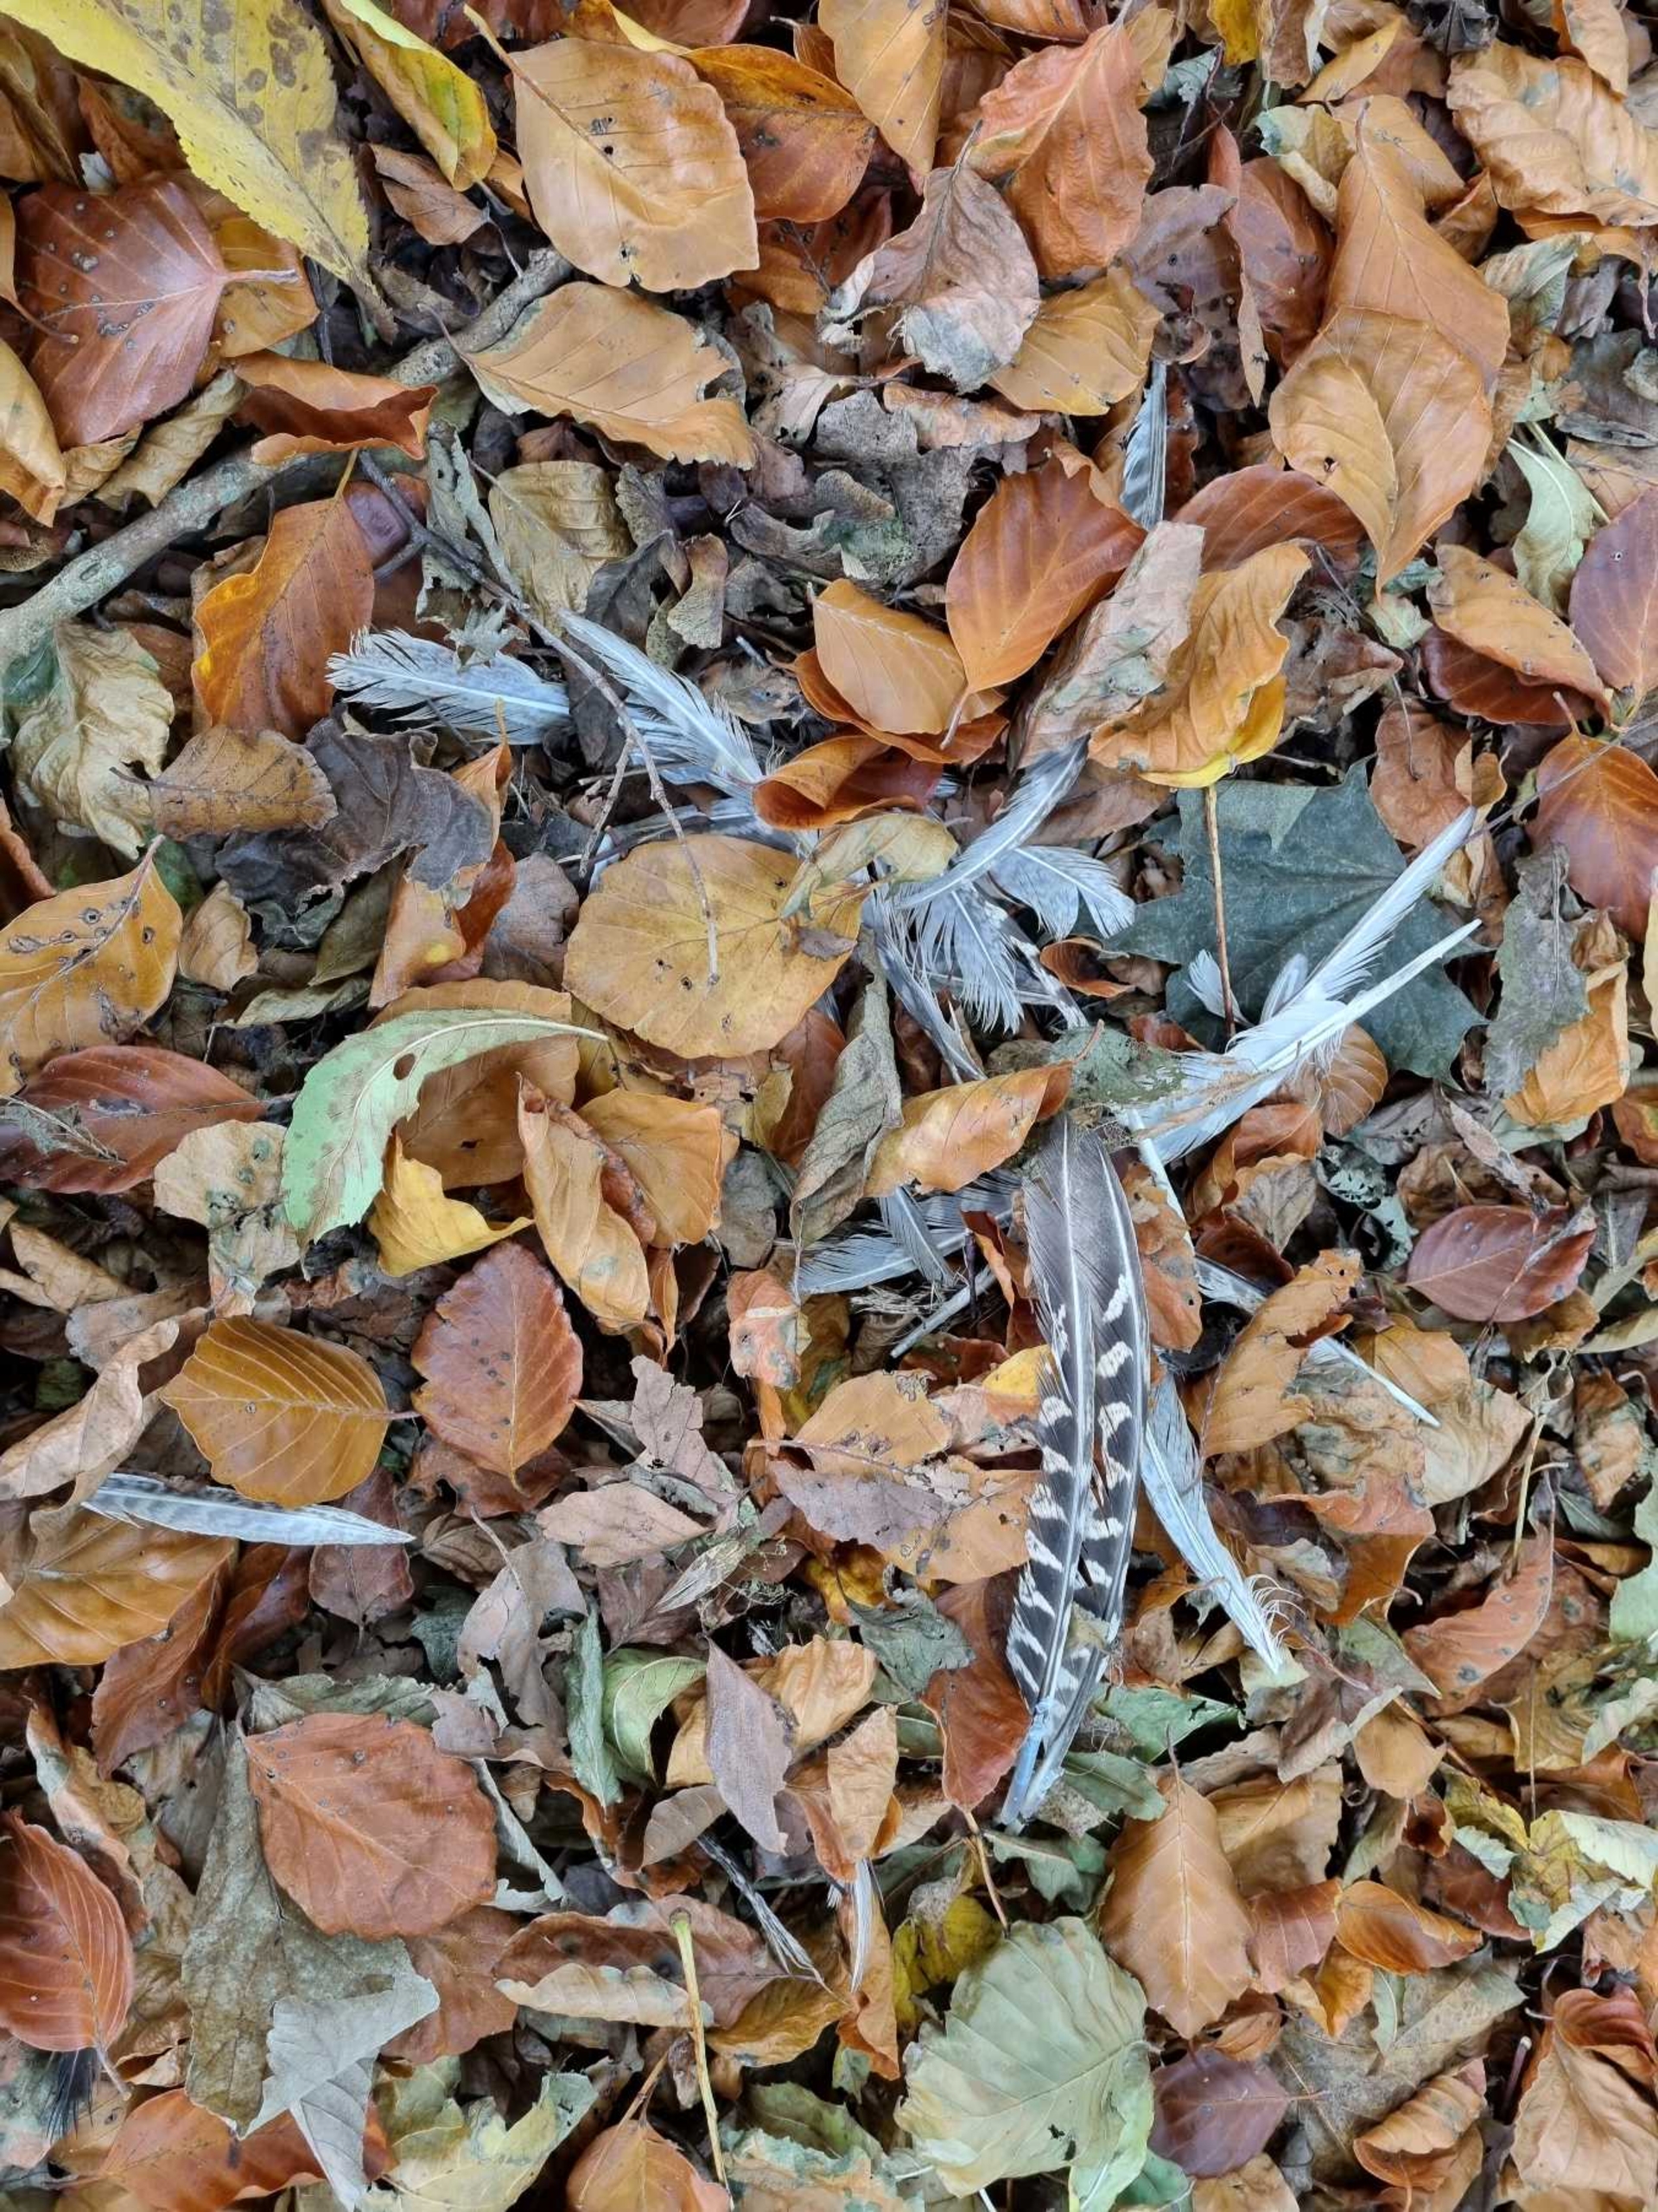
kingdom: Animalia
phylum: Chordata
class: Aves
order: Galliformes
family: Phasianidae
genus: Phasianus
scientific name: Phasianus colchicus
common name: Fasan
